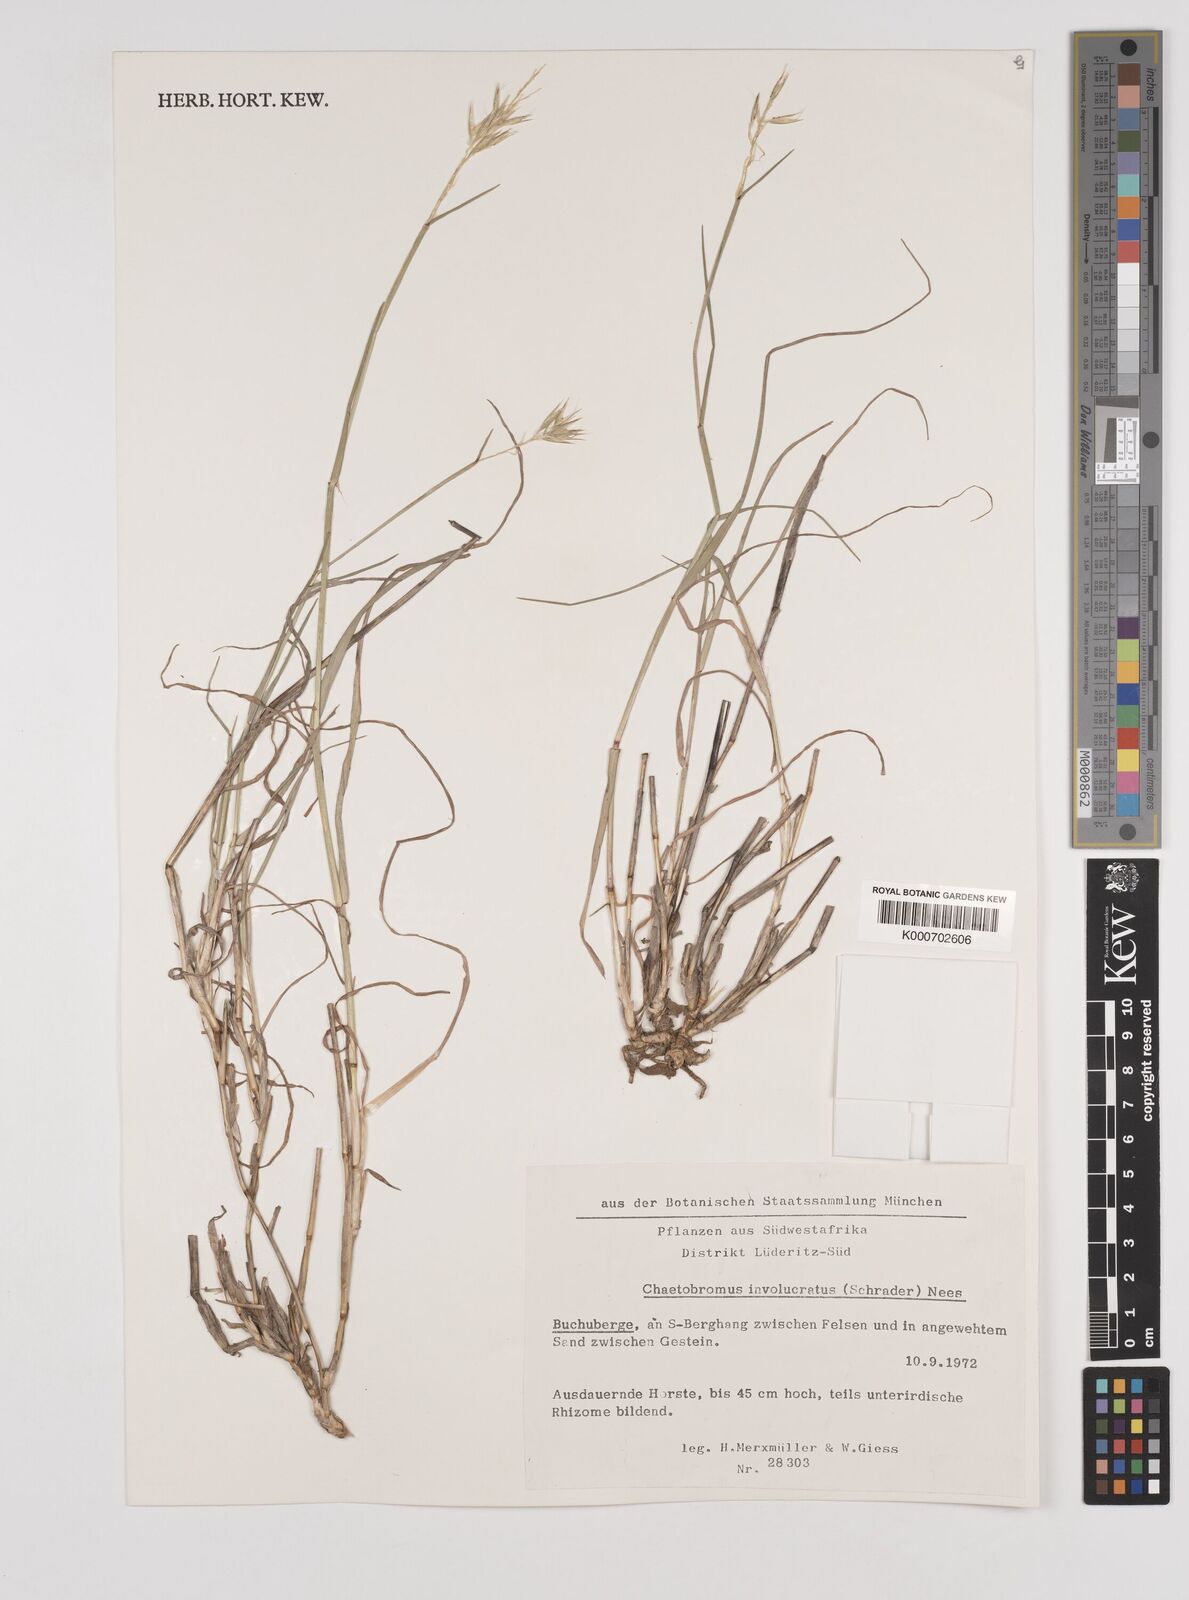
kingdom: Plantae
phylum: Tracheophyta
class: Liliopsida
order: Poales
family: Poaceae
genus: Chaetobromus
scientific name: Chaetobromus involucratus
